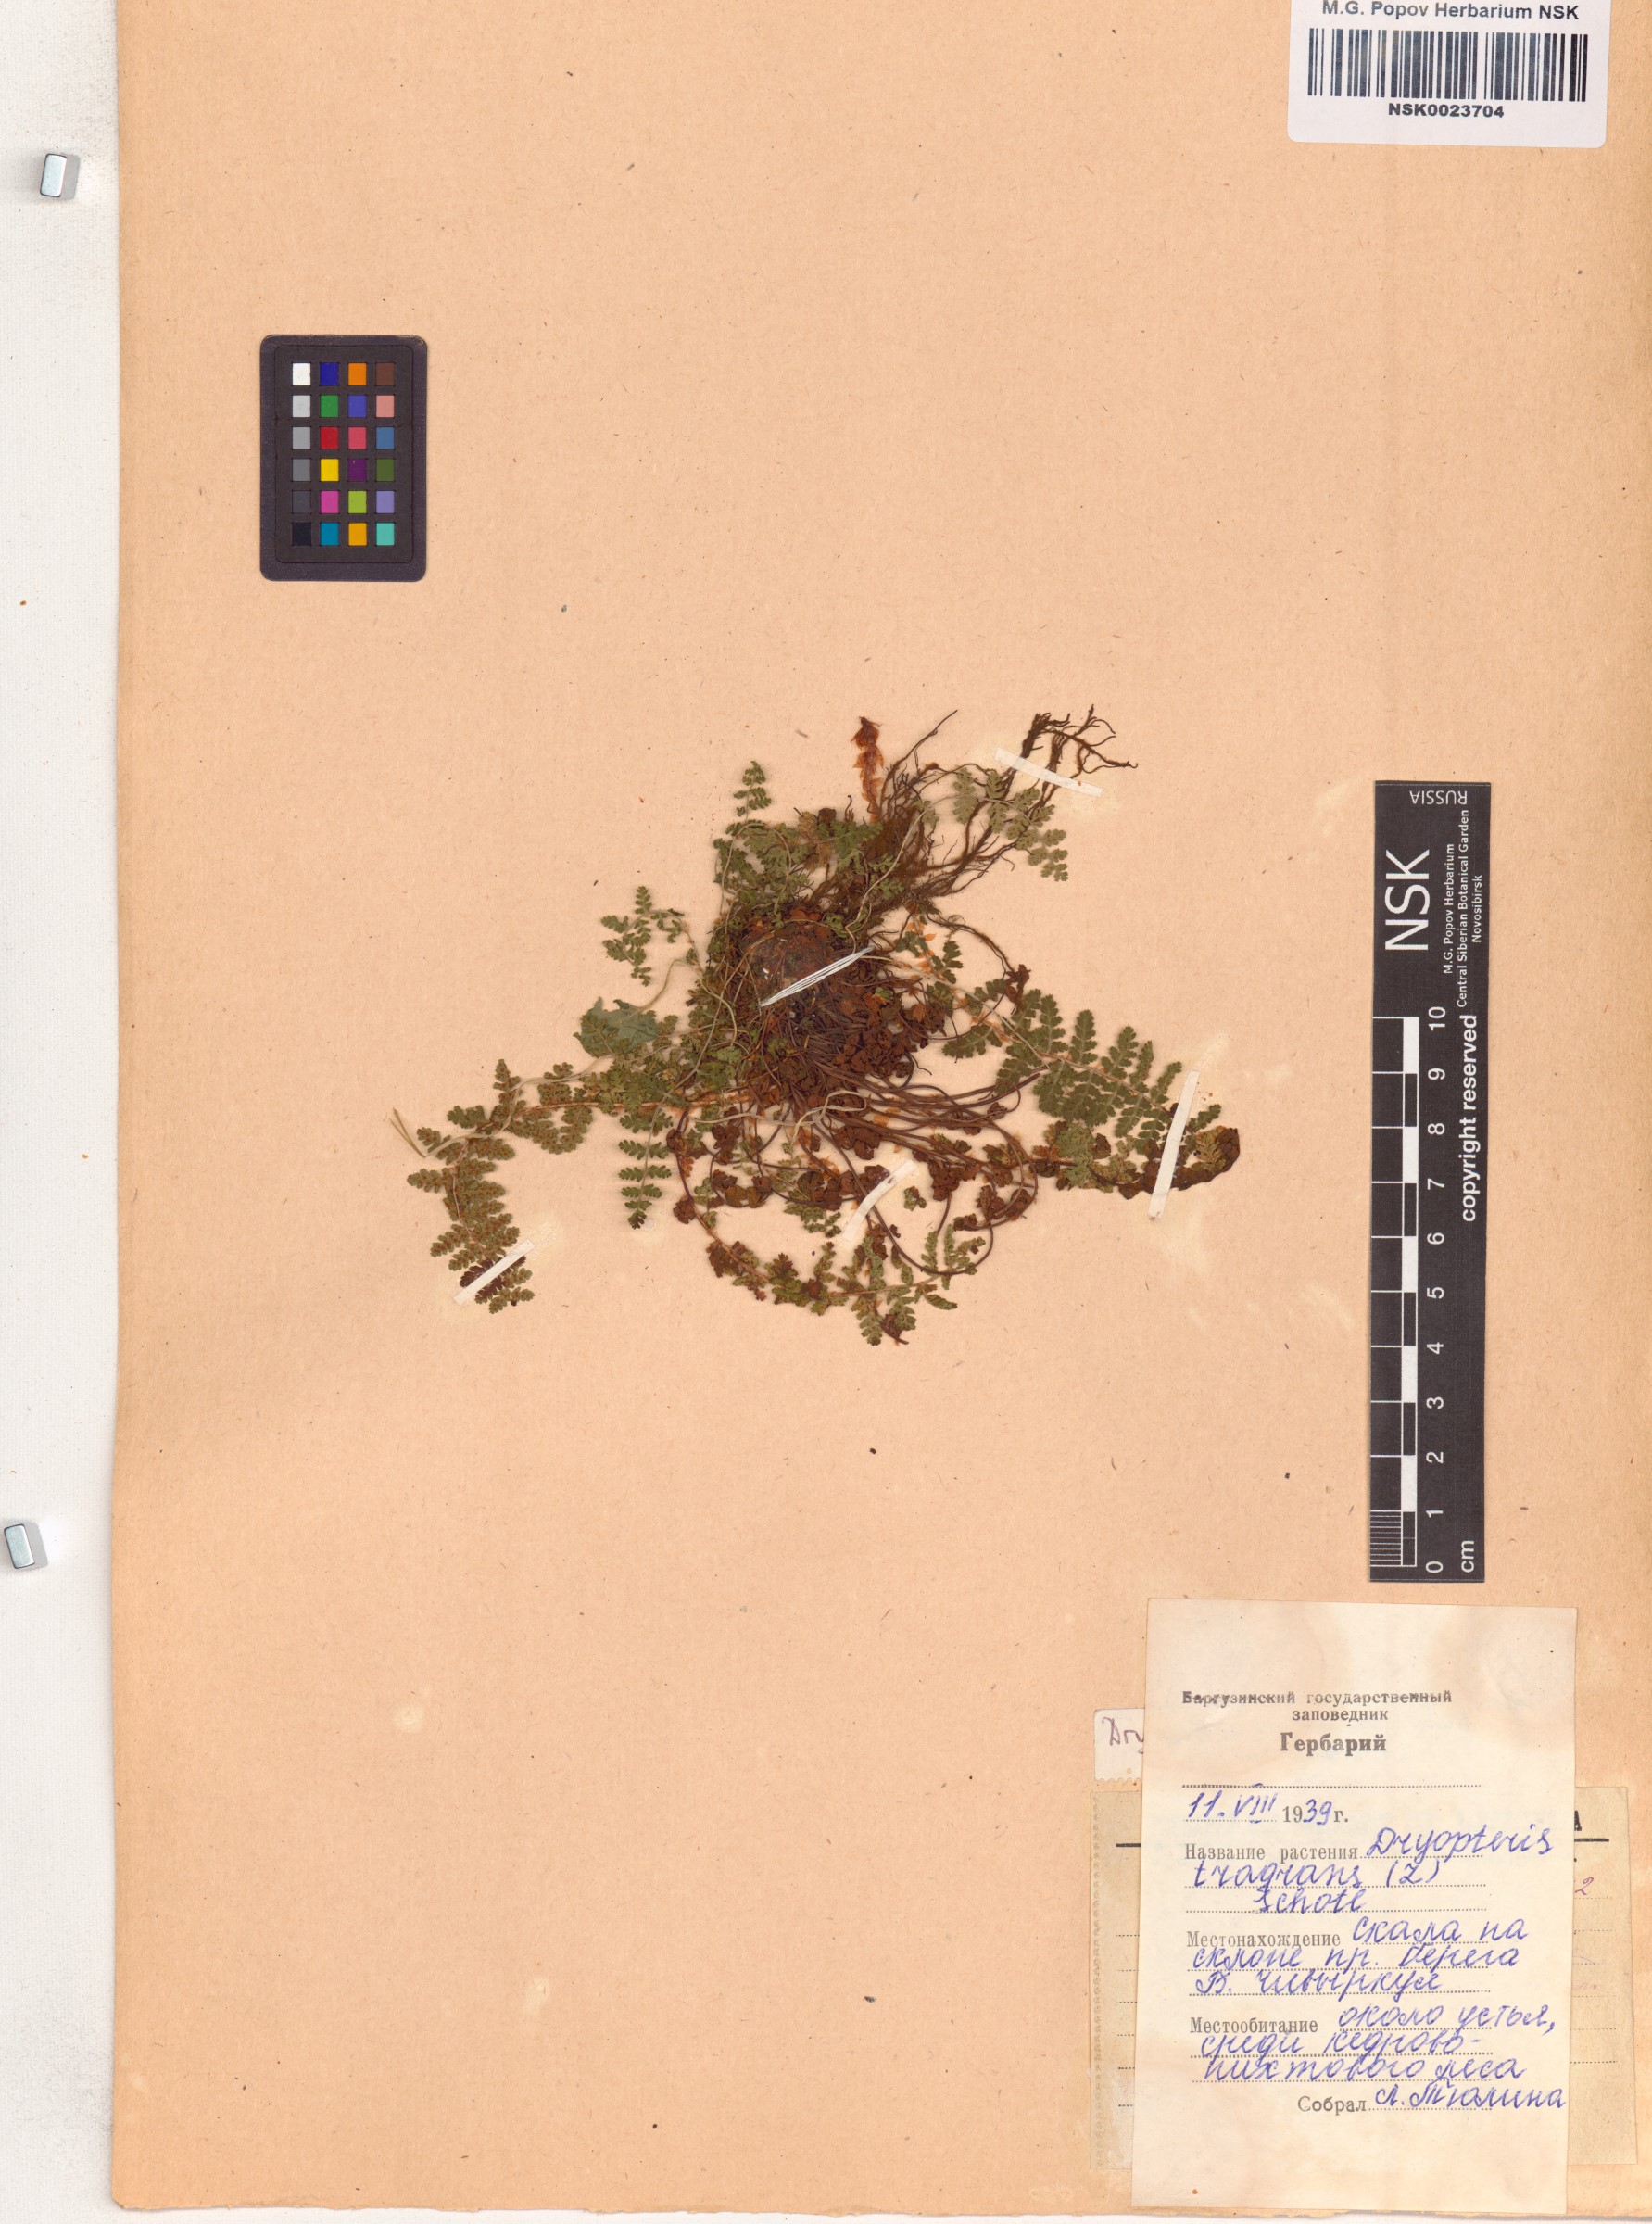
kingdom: Plantae
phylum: Tracheophyta
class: Polypodiopsida
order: Polypodiales
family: Dryopteridaceae
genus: Dryopteris
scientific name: Dryopteris fragrans
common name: Fragrant wood fern
